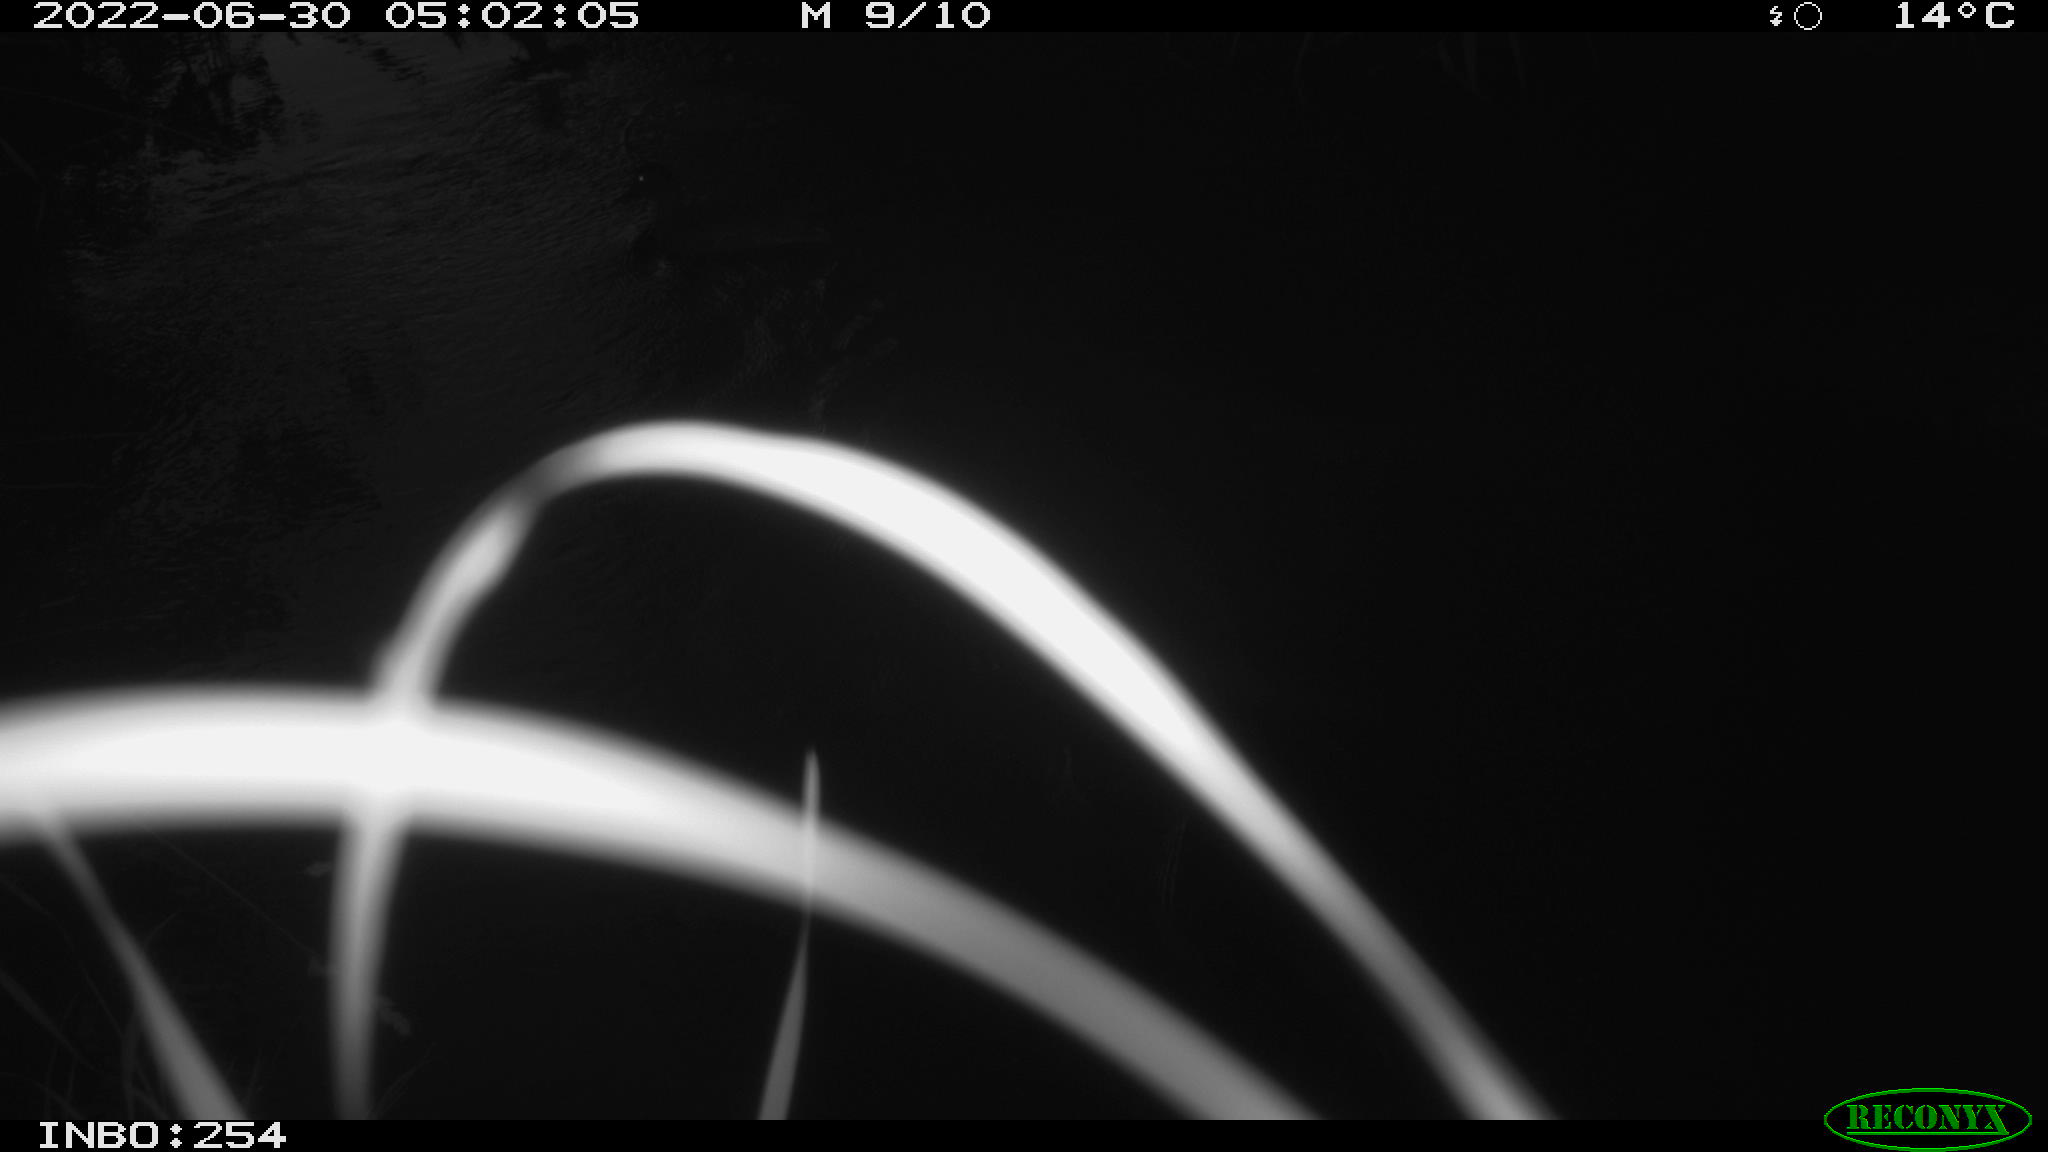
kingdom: Animalia
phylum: Chordata
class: Aves
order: Anseriformes
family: Anatidae
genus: Anas
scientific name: Anas platyrhynchos
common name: Mallard
